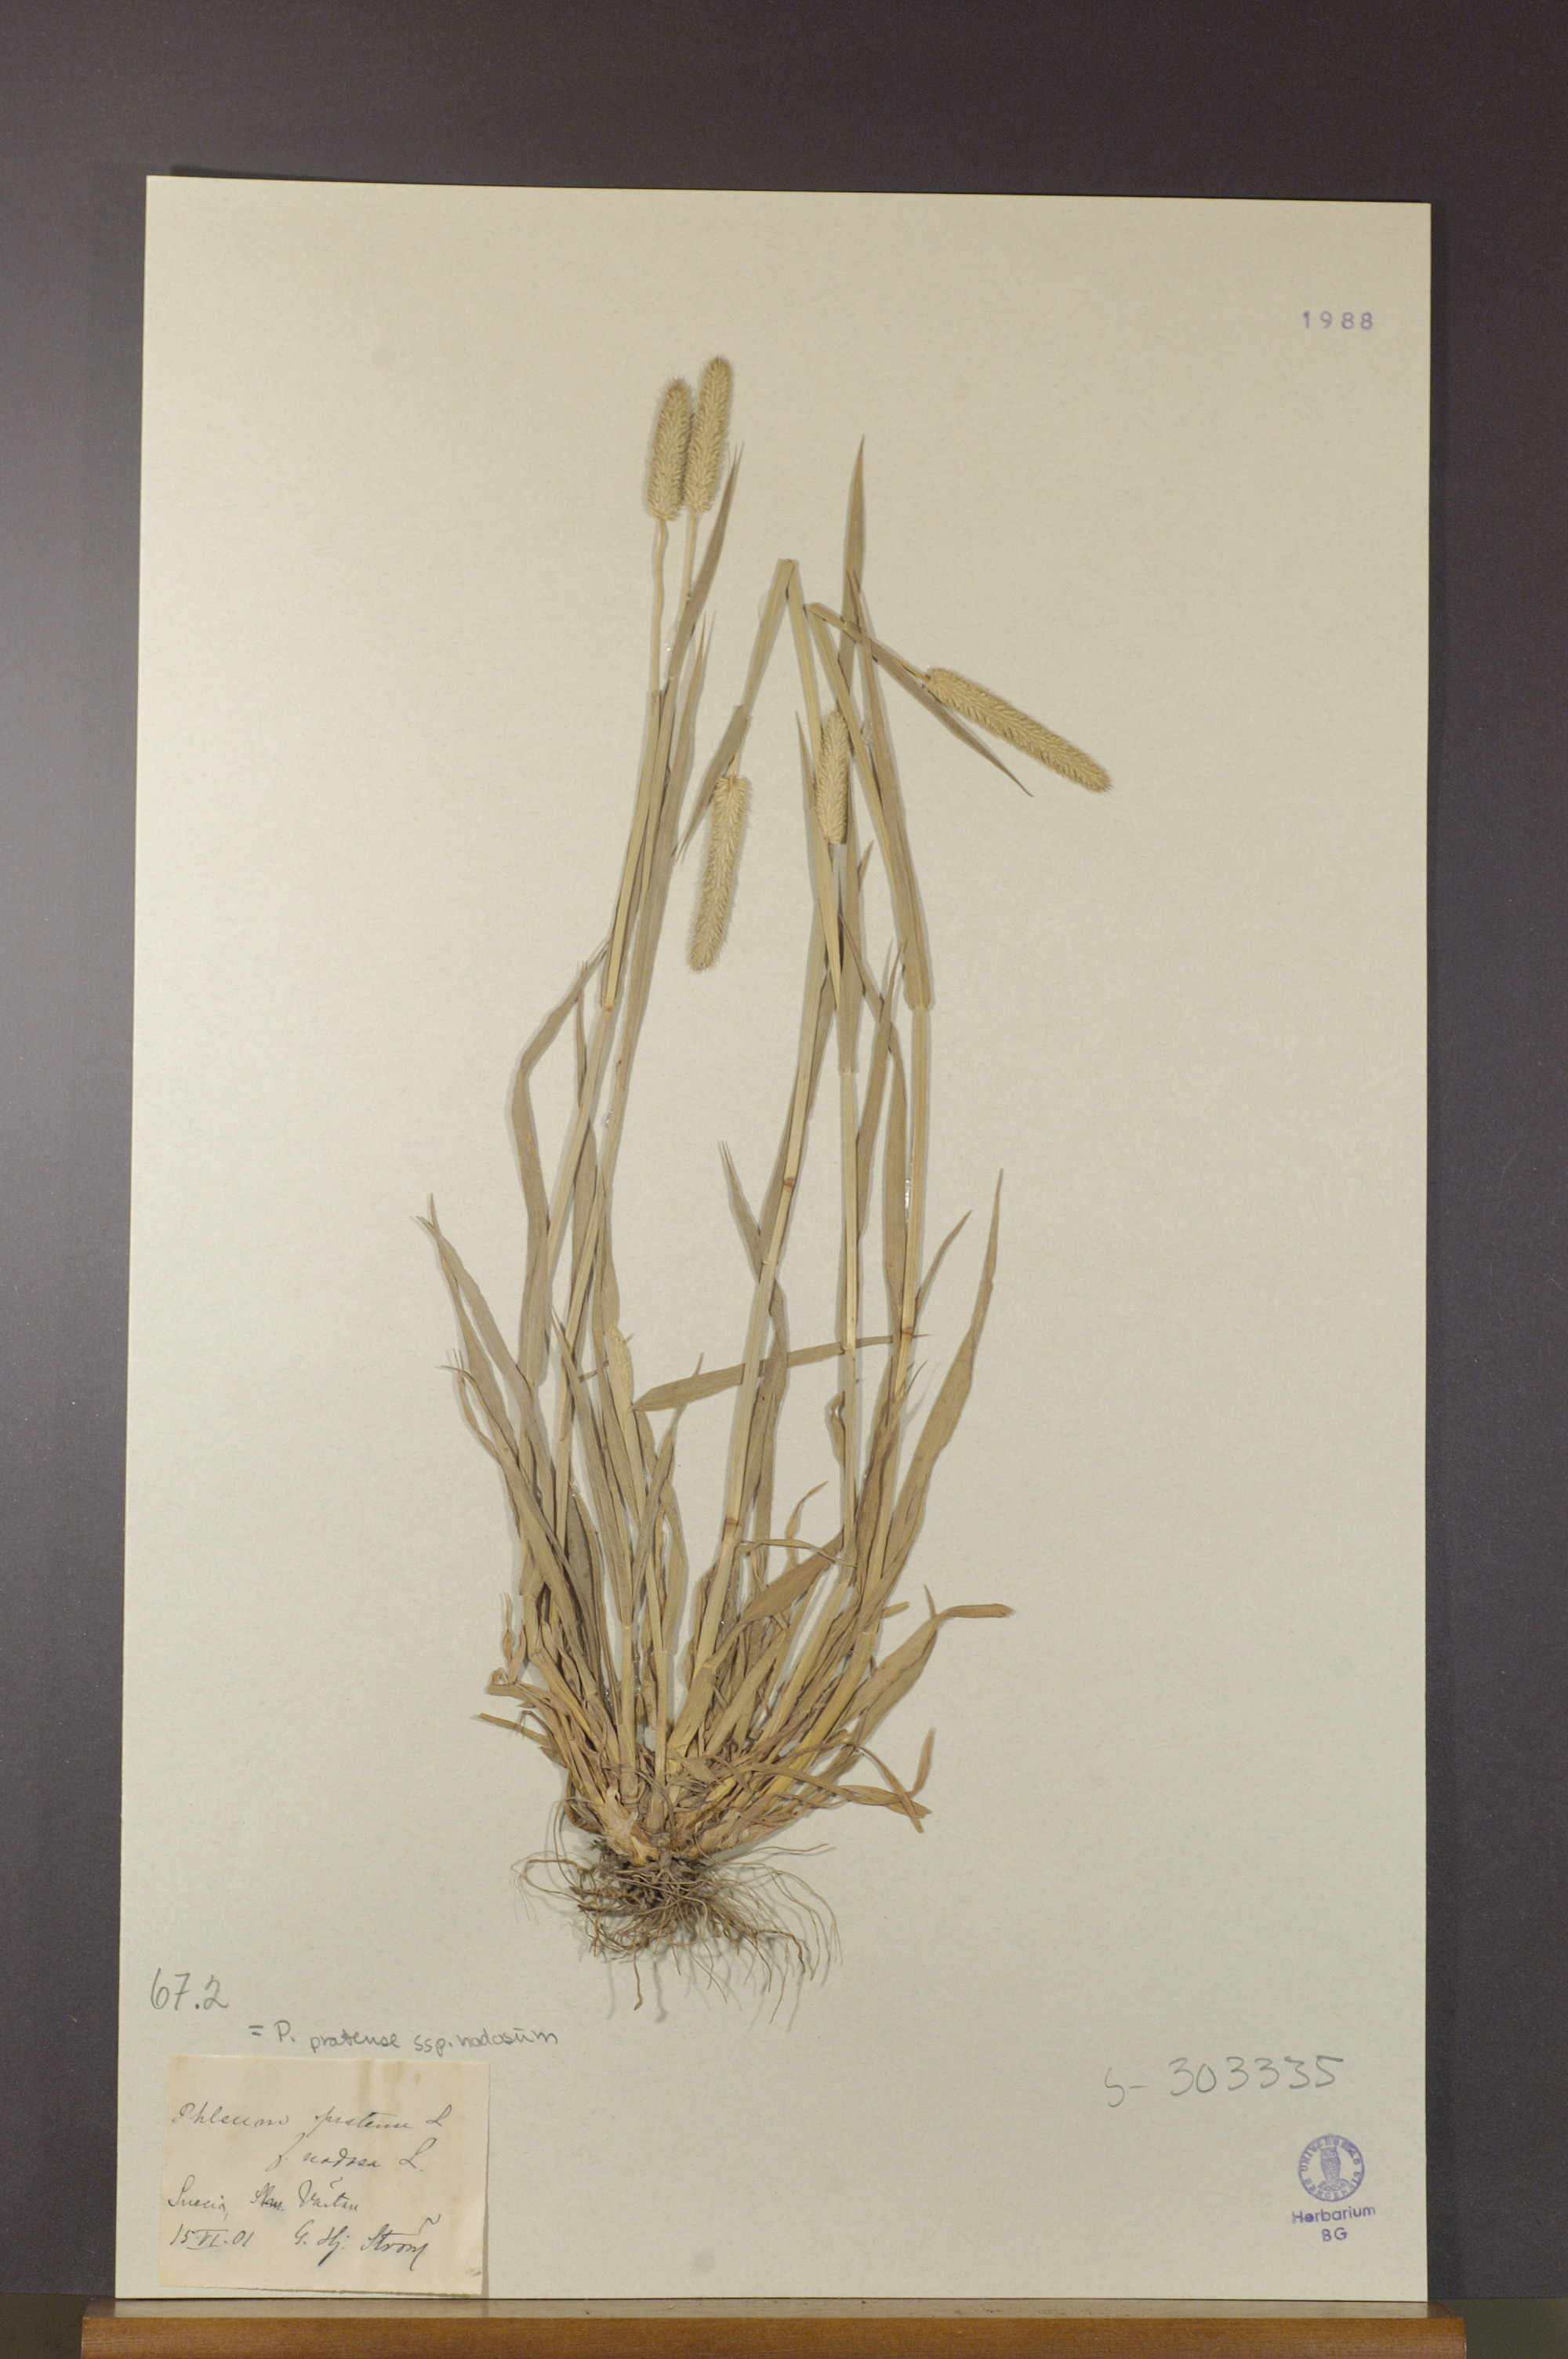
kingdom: Plantae
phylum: Tracheophyta
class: Liliopsida
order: Poales
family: Poaceae
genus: Phleum
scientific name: Phleum pratense
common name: Timothy grass
